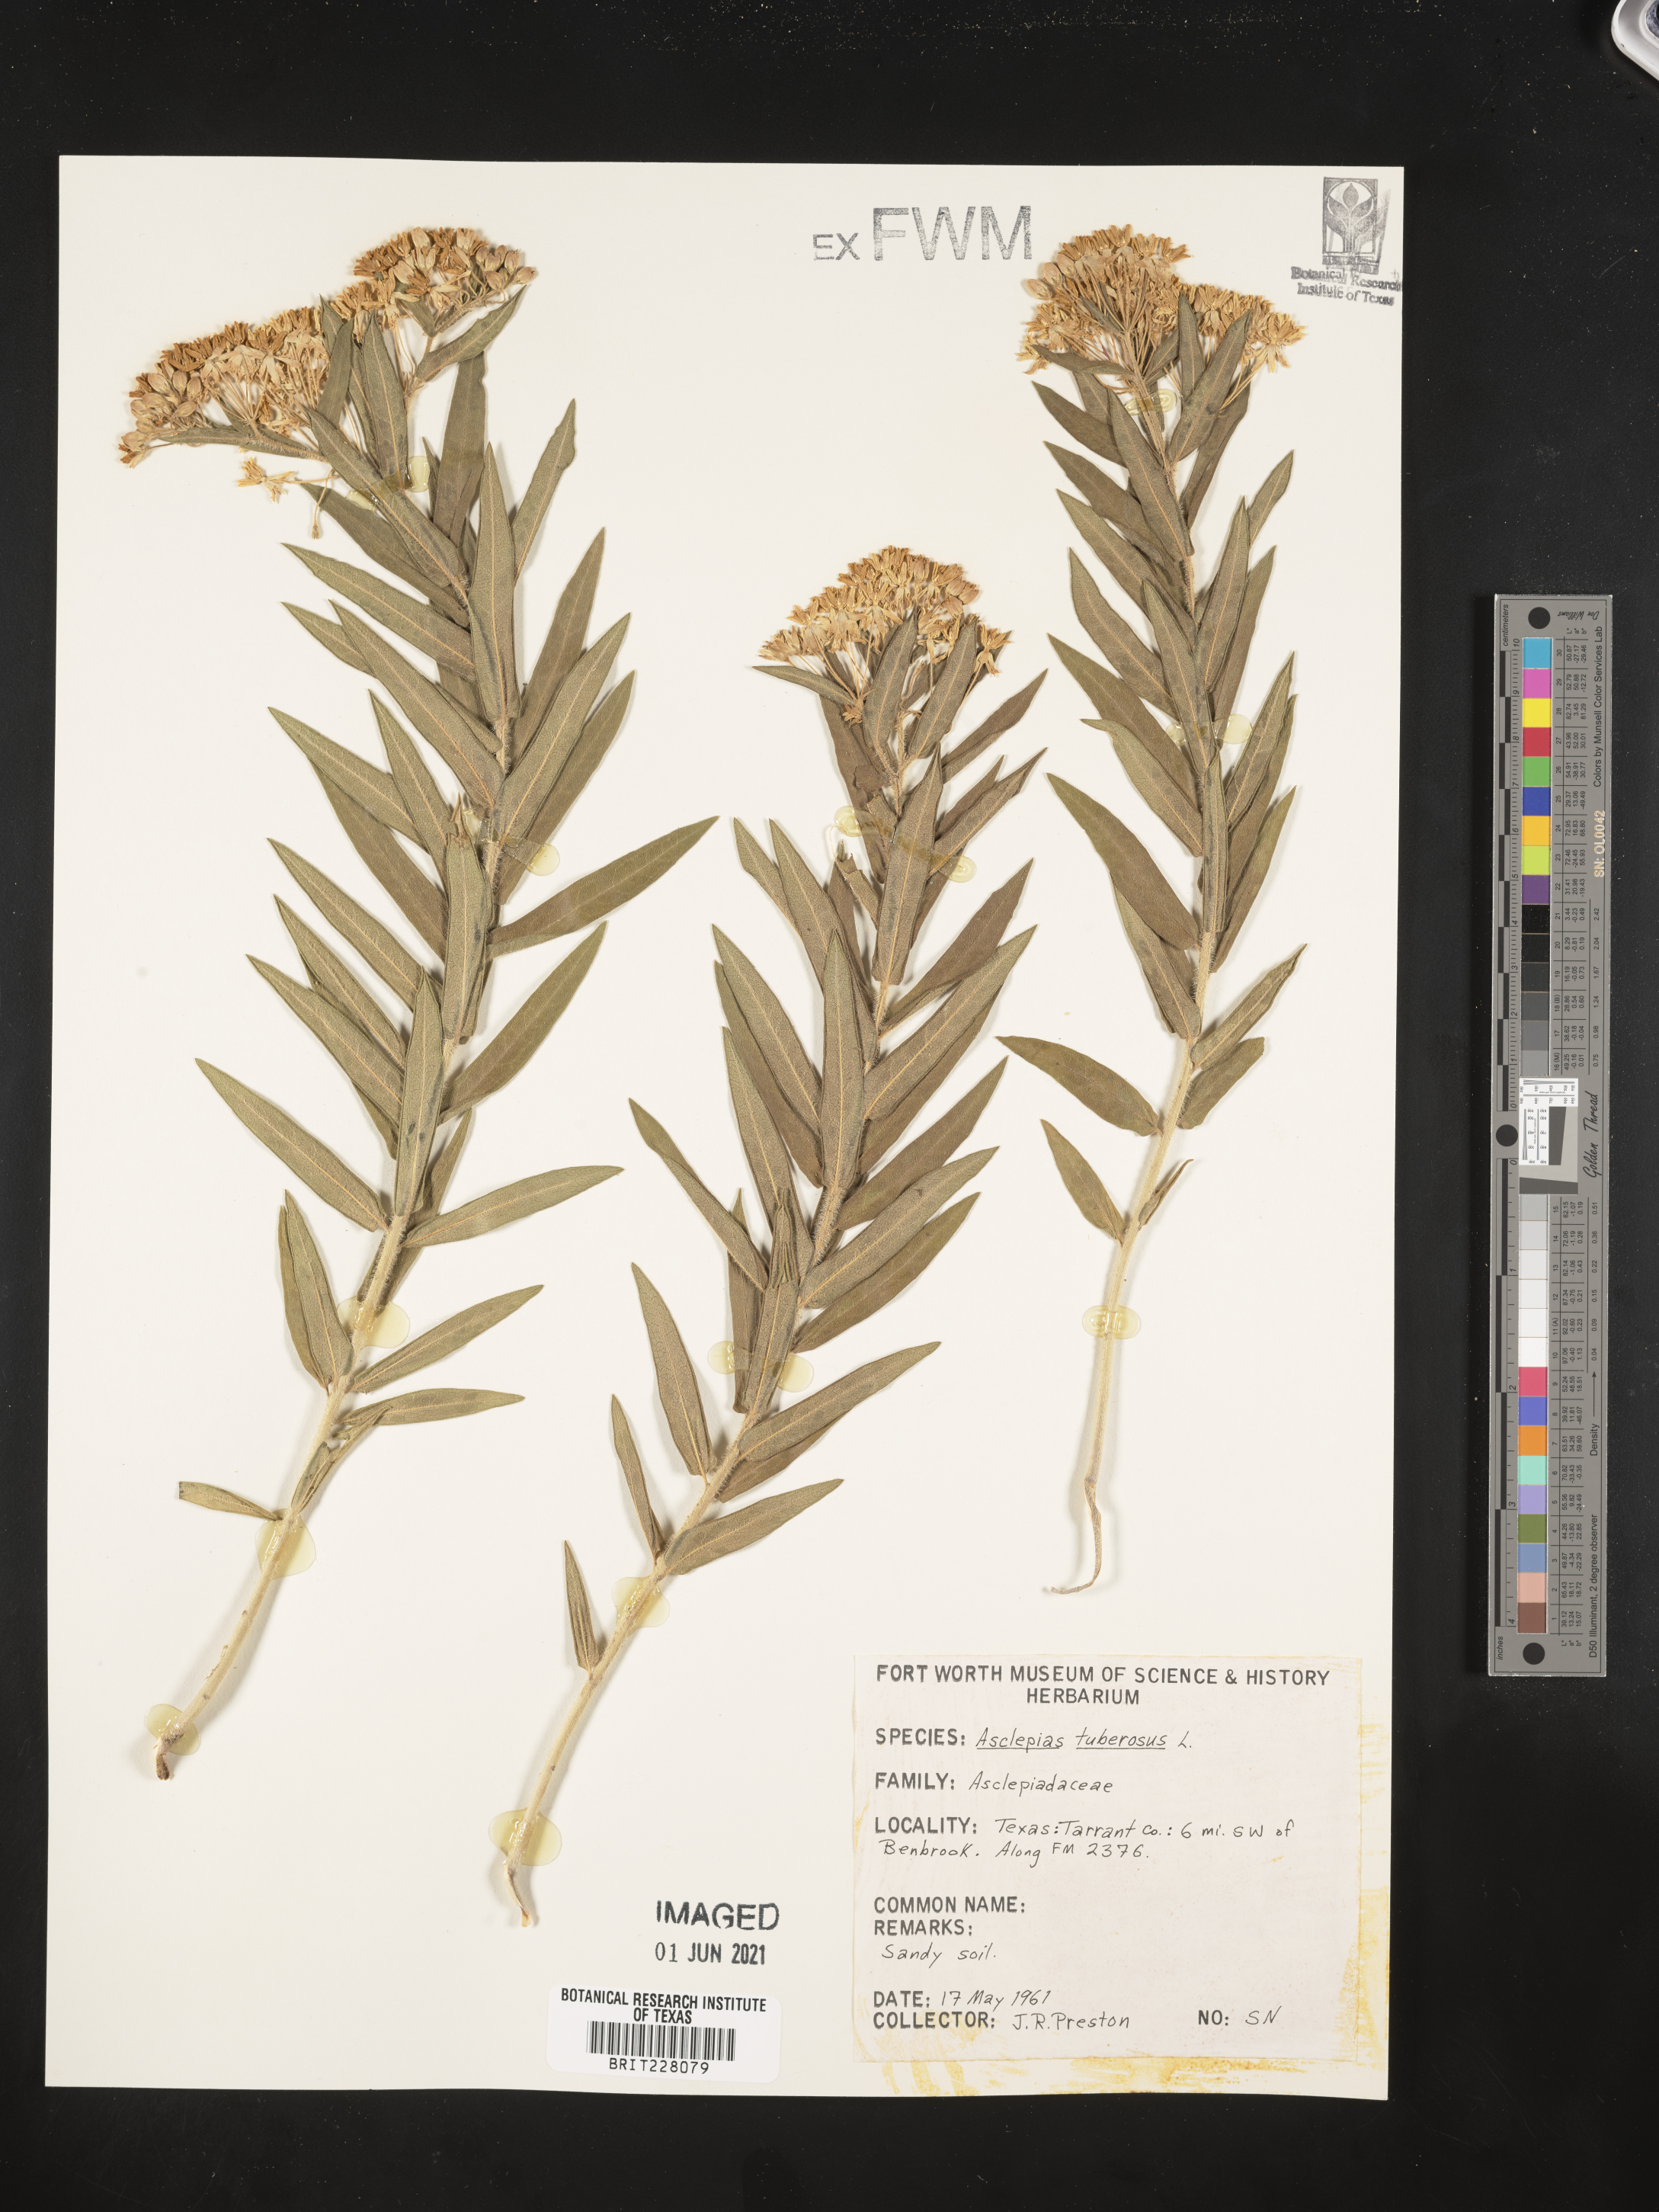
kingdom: Plantae
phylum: Tracheophyta
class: Magnoliopsida
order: Gentianales
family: Apocynaceae
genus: Asclepias
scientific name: Asclepias tuberosa
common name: Butterfly milkweed
